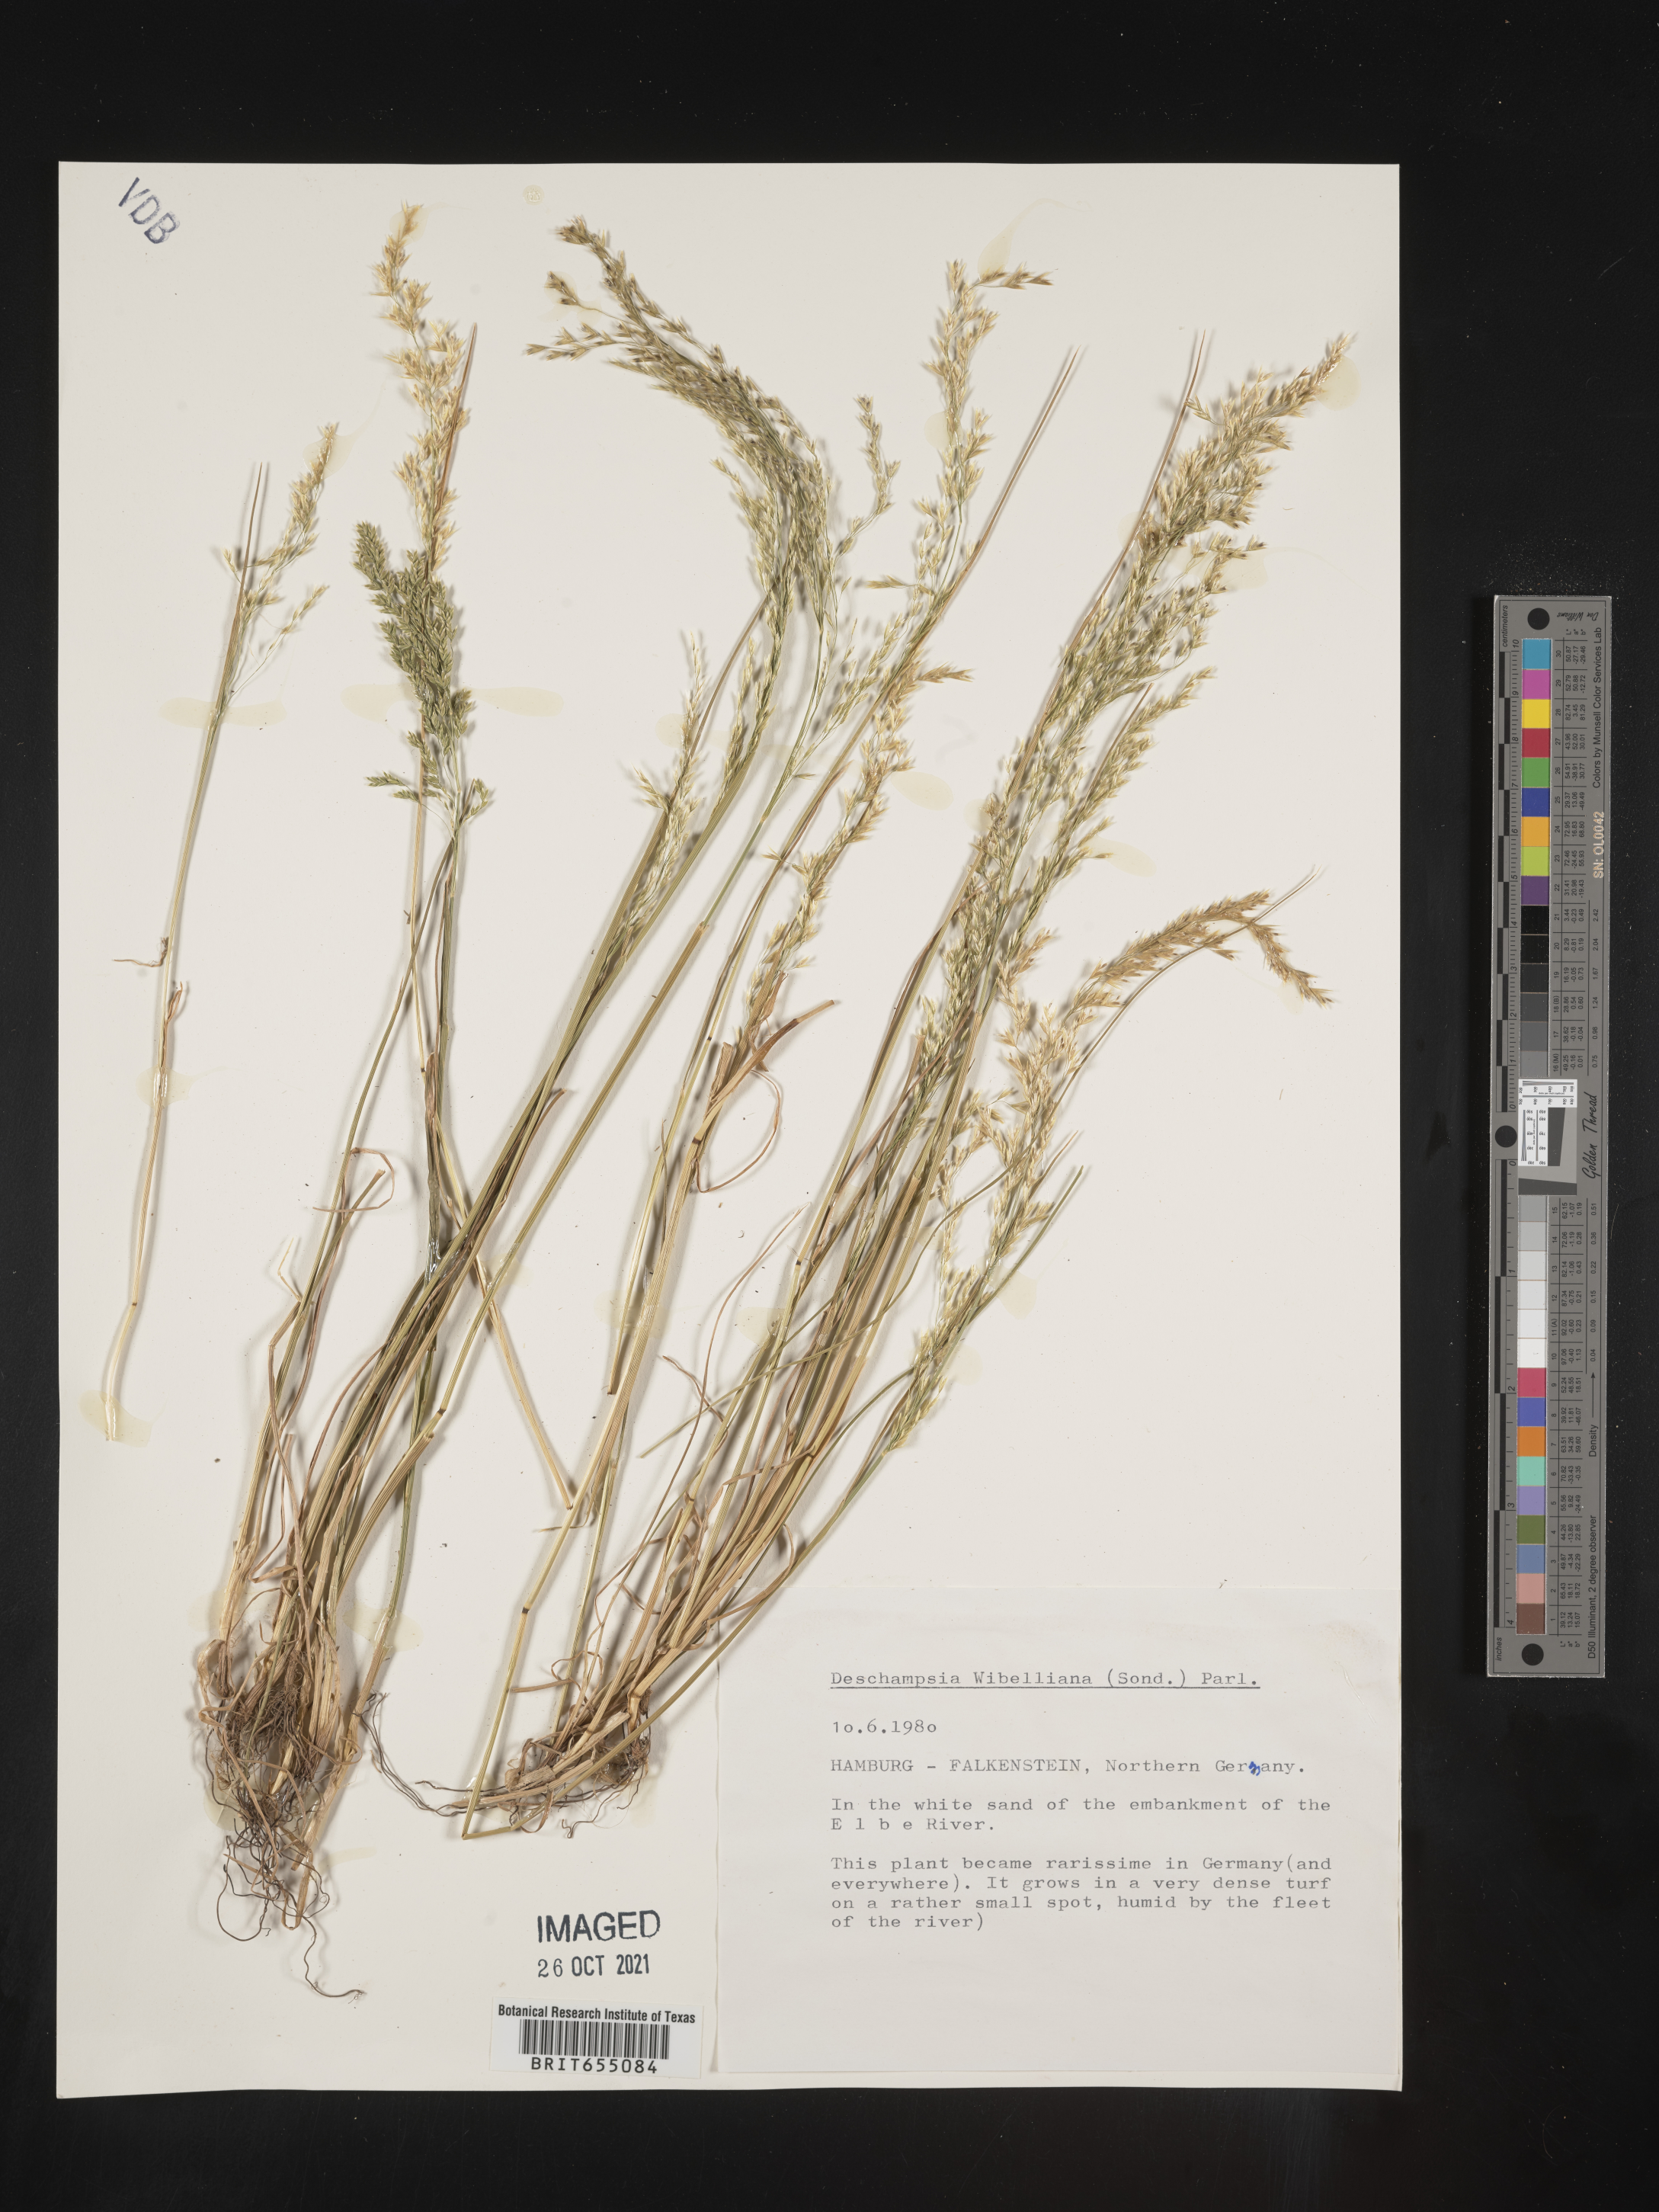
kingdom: Plantae
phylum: Tracheophyta
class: Liliopsida
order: Poales
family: Poaceae
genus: Deschampsia
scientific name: Deschampsia
